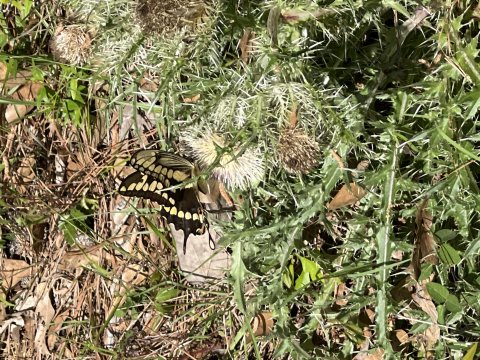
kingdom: Animalia
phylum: Arthropoda
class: Insecta
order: Lepidoptera
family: Papilionidae
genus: Papilio
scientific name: Papilio cresphontes
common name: Eastern Giant Swallowtail
